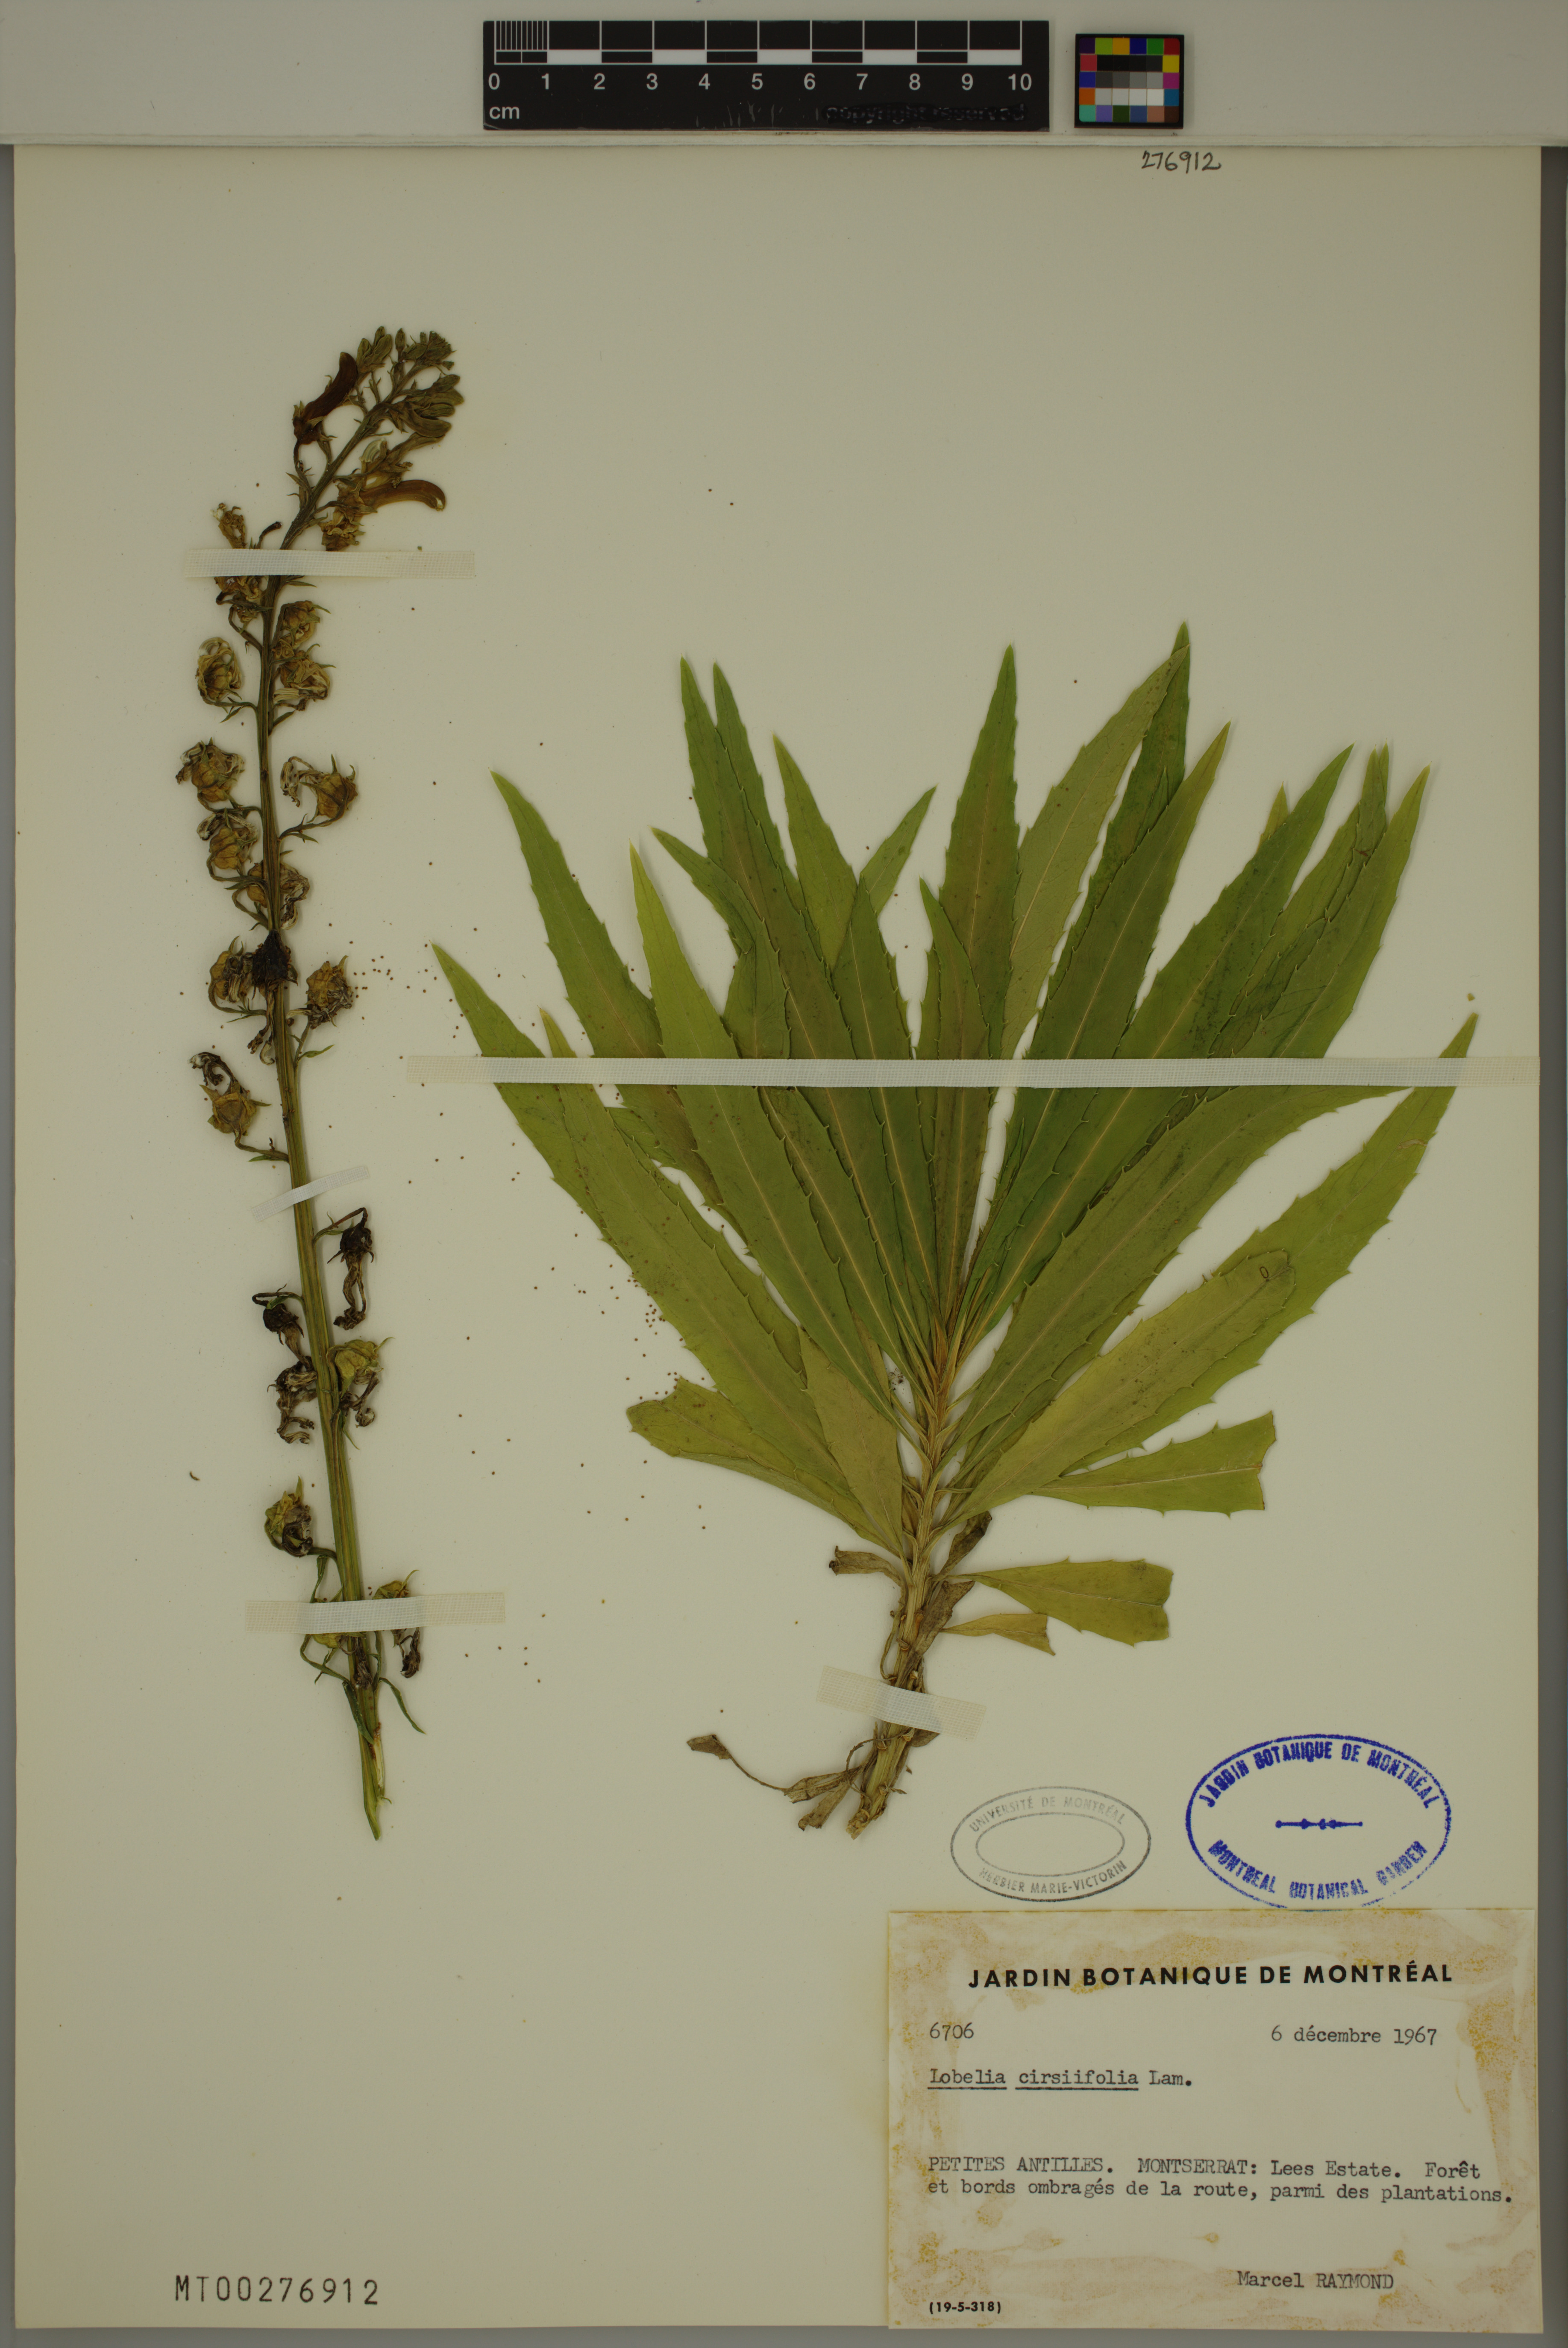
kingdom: Plantae
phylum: Tracheophyta
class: Magnoliopsida
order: Asterales
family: Campanulaceae
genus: Lobelia
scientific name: Lobelia cirsiifolia
